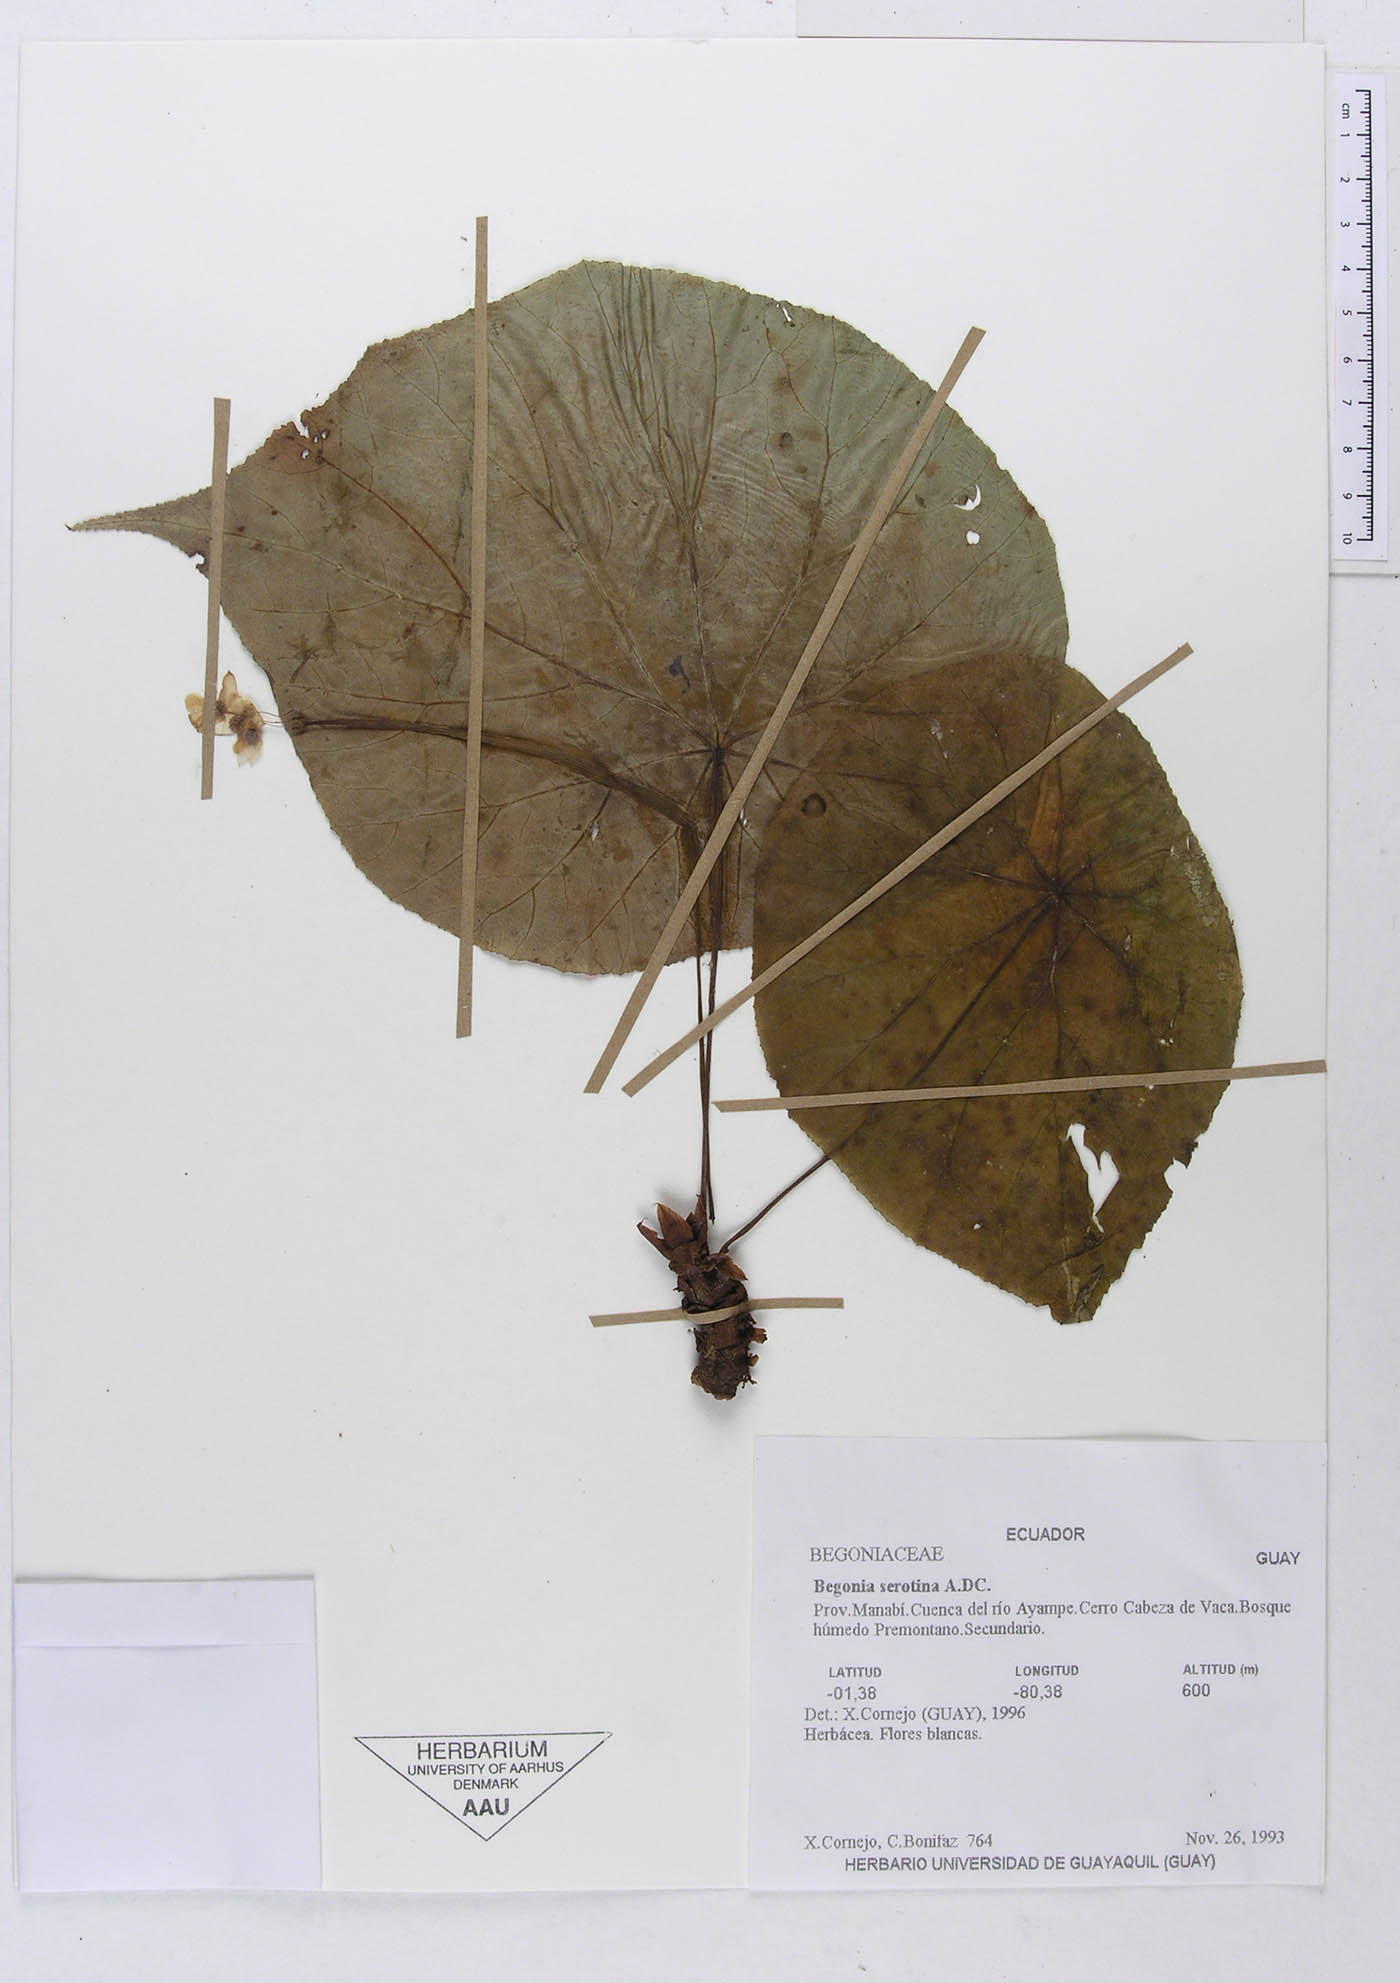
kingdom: Plantae
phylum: Tracheophyta
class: Magnoliopsida
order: Cucurbitales
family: Begoniaceae
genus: Begonia
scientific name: Begonia serotina
